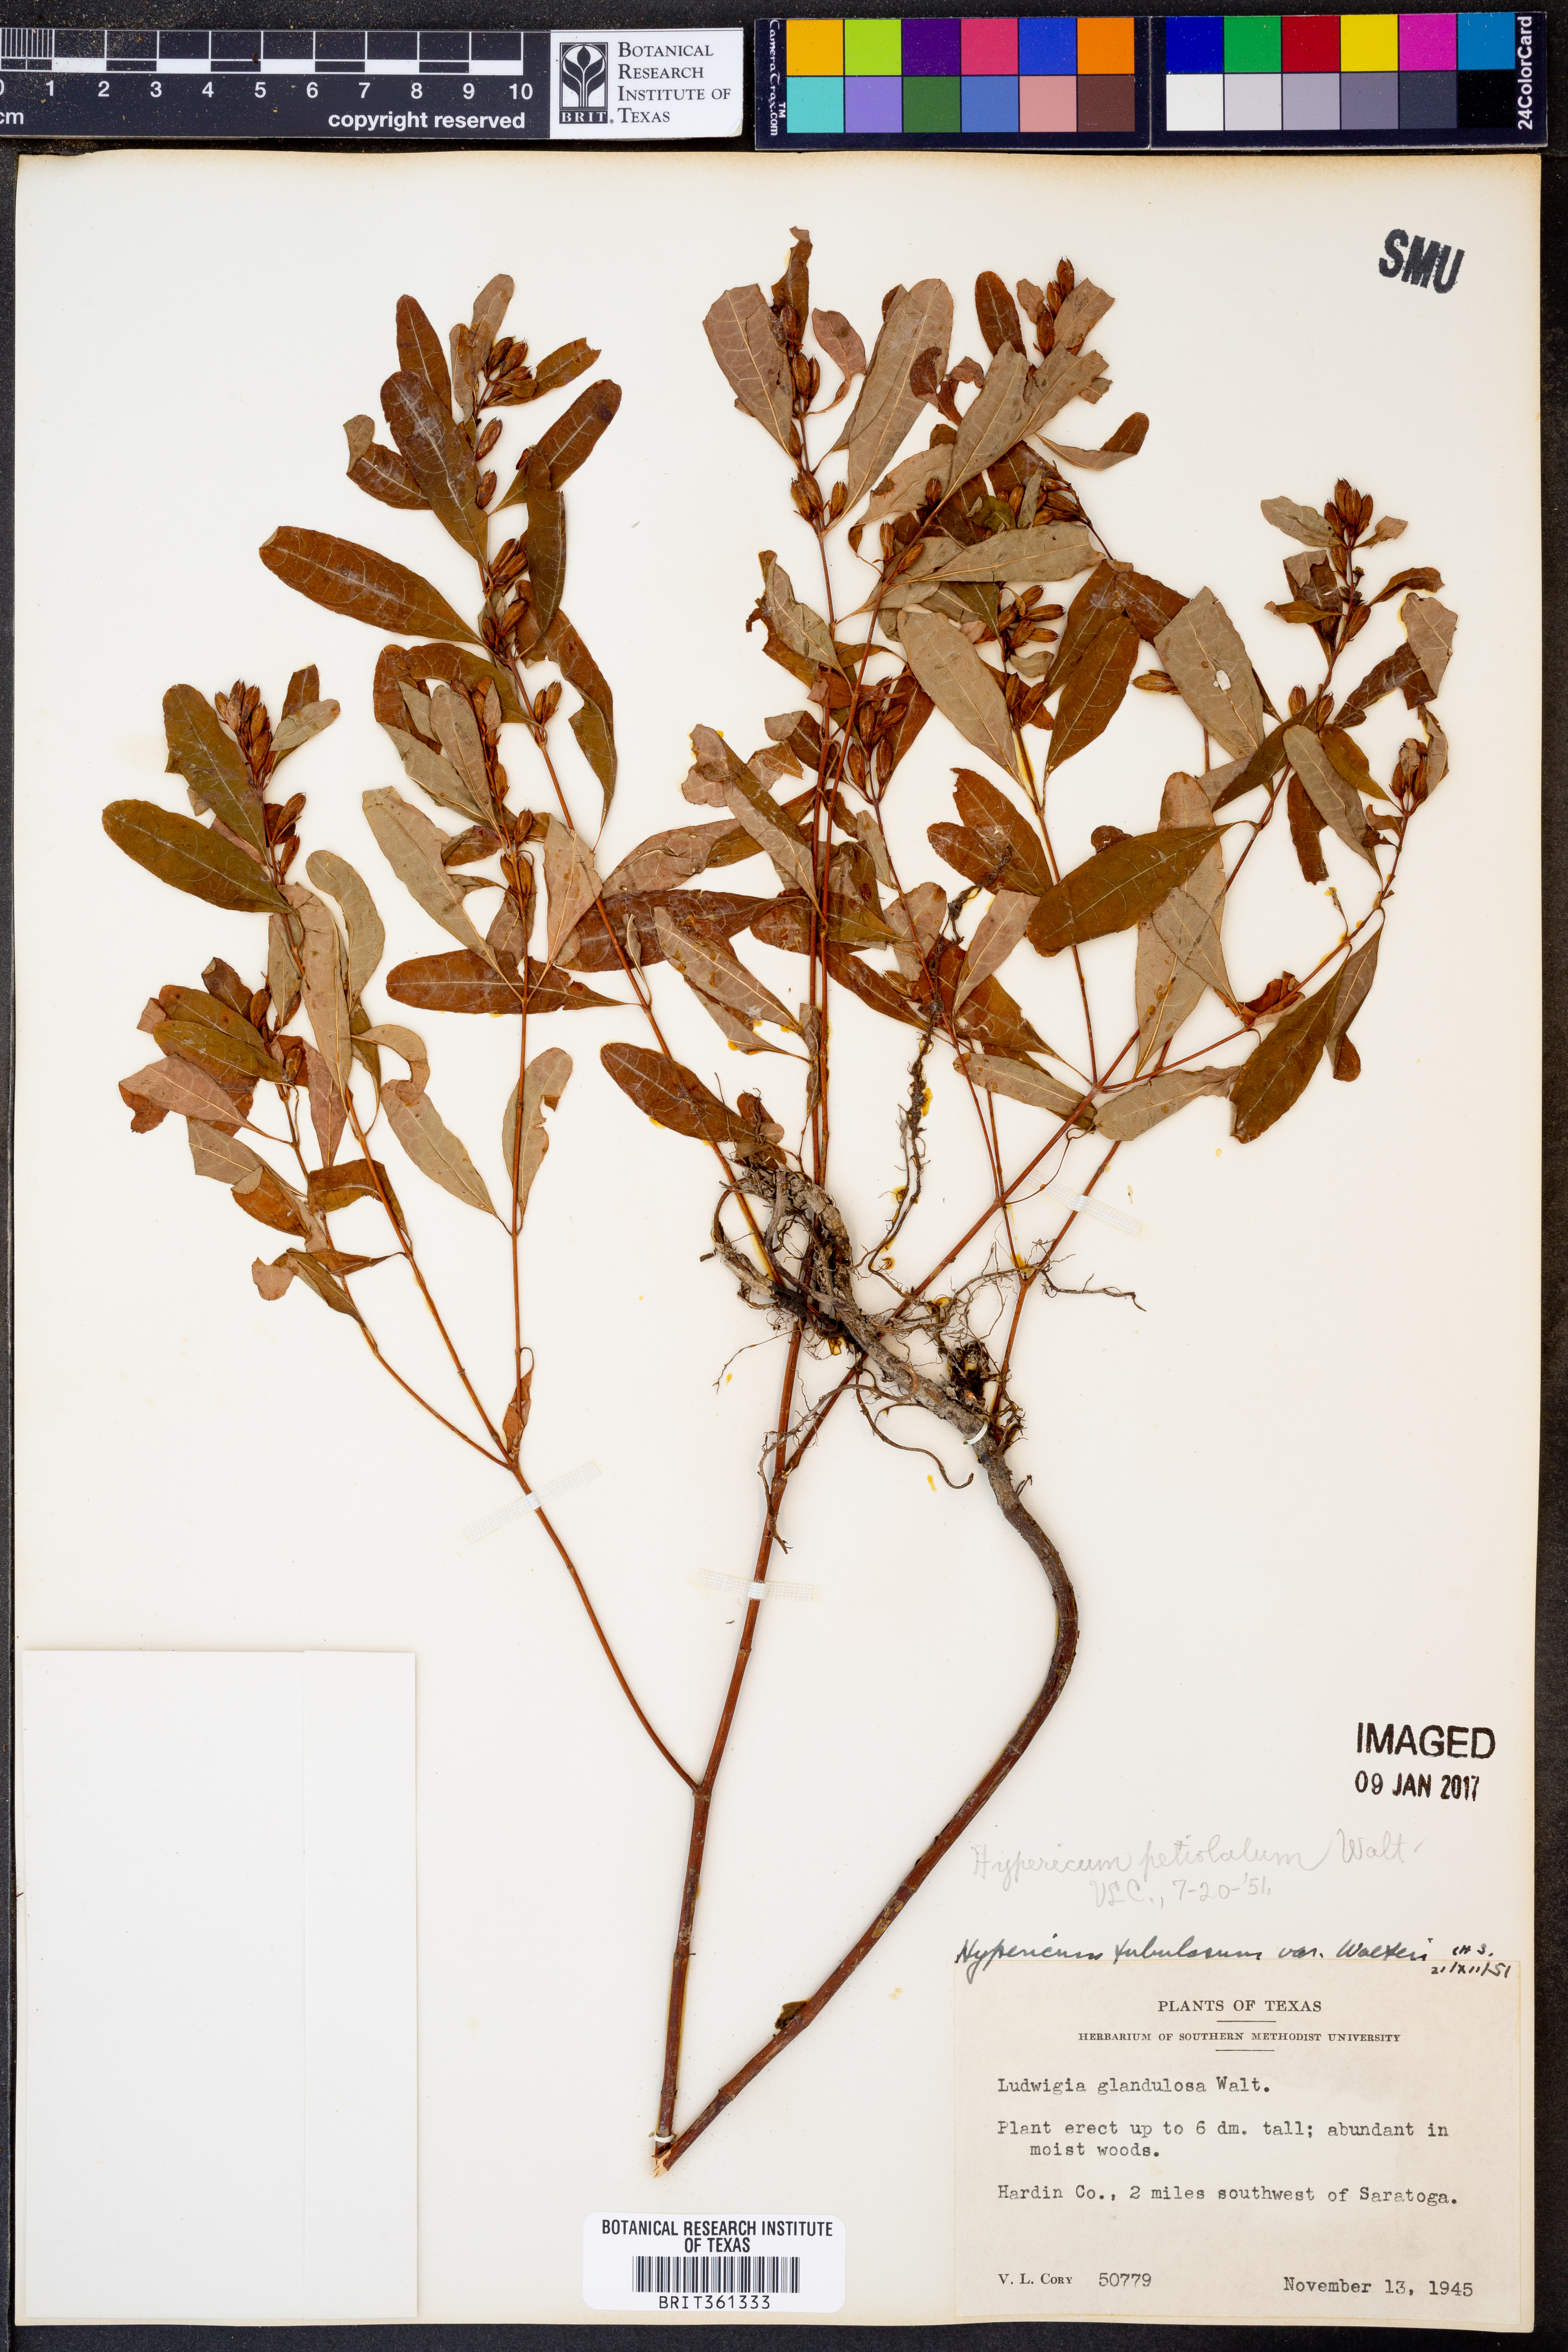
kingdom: Plantae
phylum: Tracheophyta
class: Magnoliopsida
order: Malpighiales
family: Hypericaceae
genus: Triadenum
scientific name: Triadenum walteri
